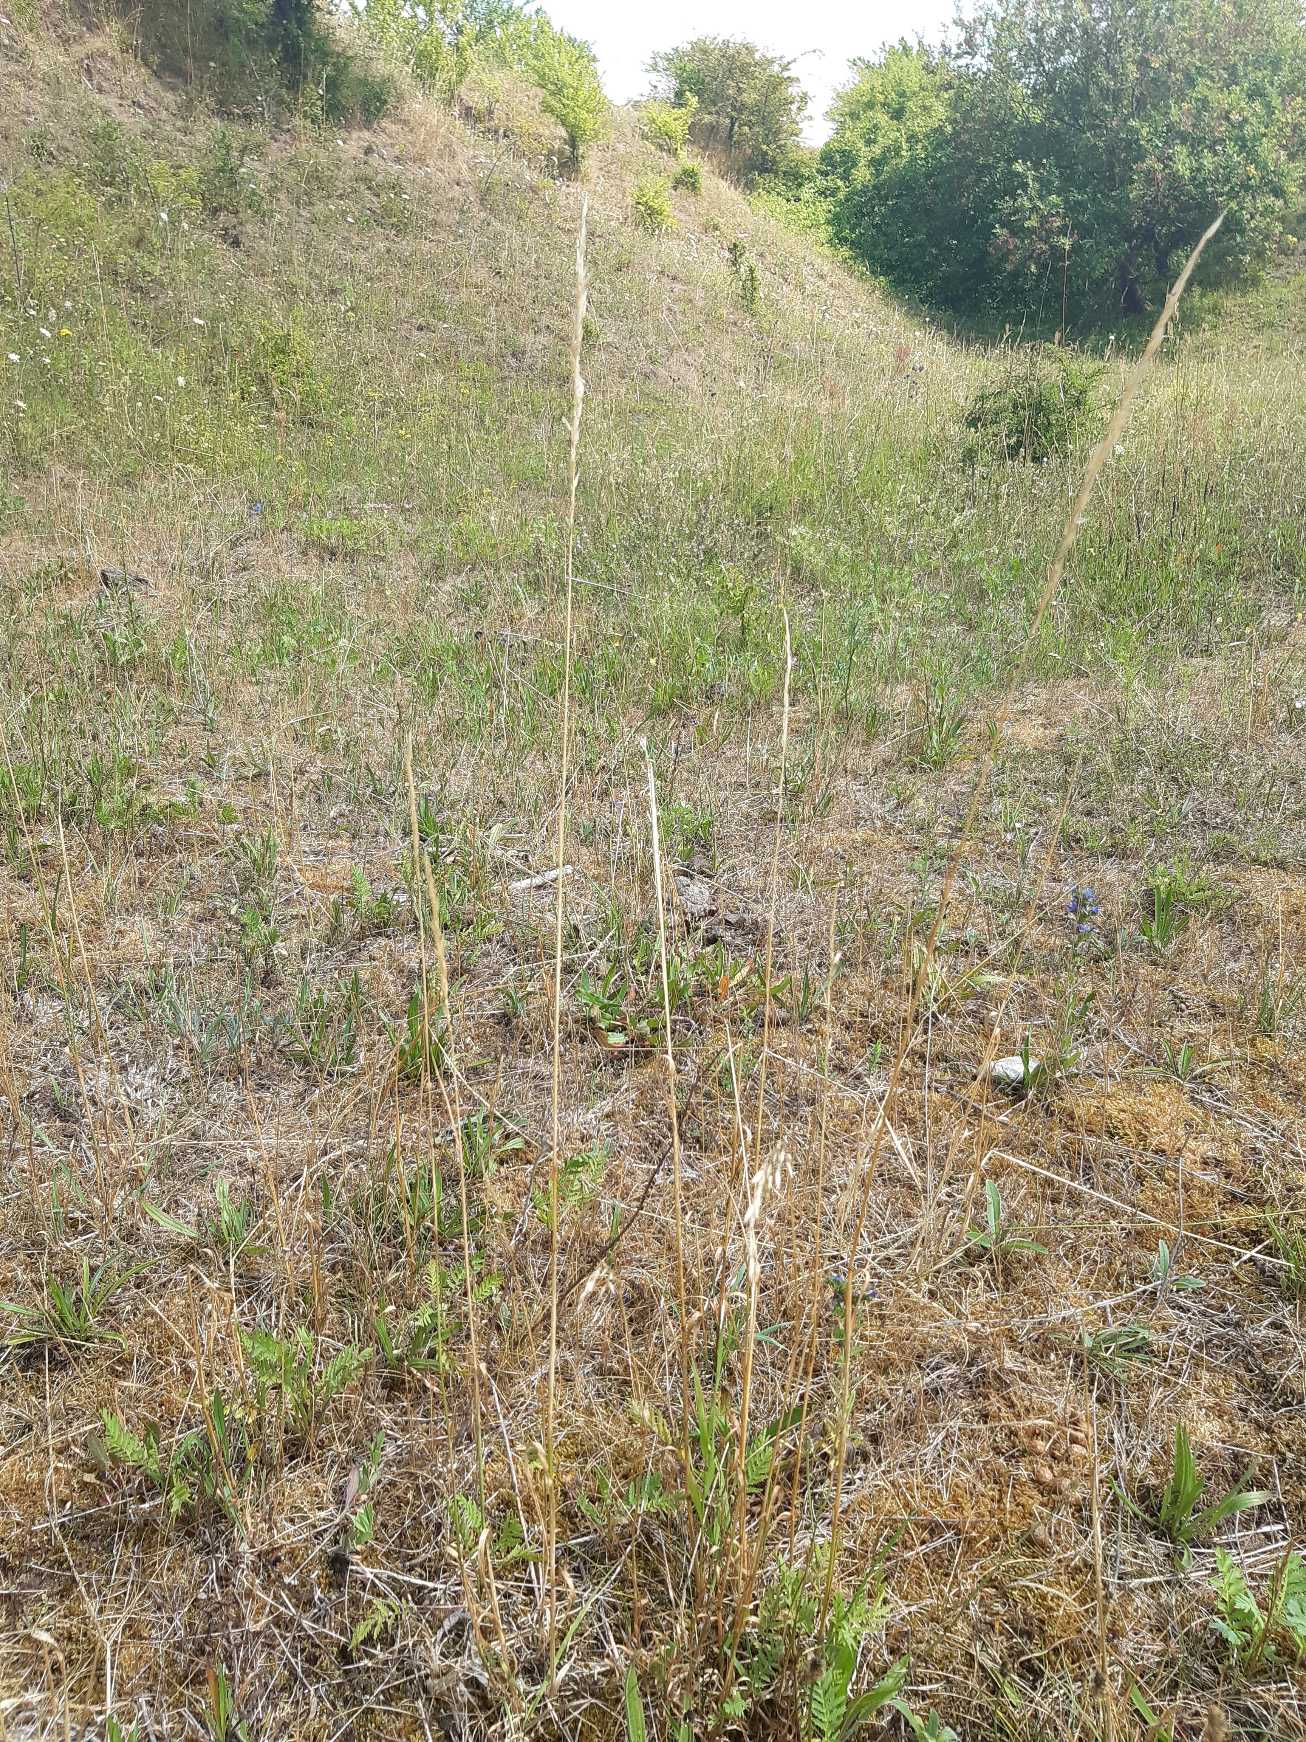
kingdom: Plantae
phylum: Tracheophyta
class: Liliopsida
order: Poales
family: Poaceae
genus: Arrhenatherum
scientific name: Arrhenatherum elatius
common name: Draphavre
